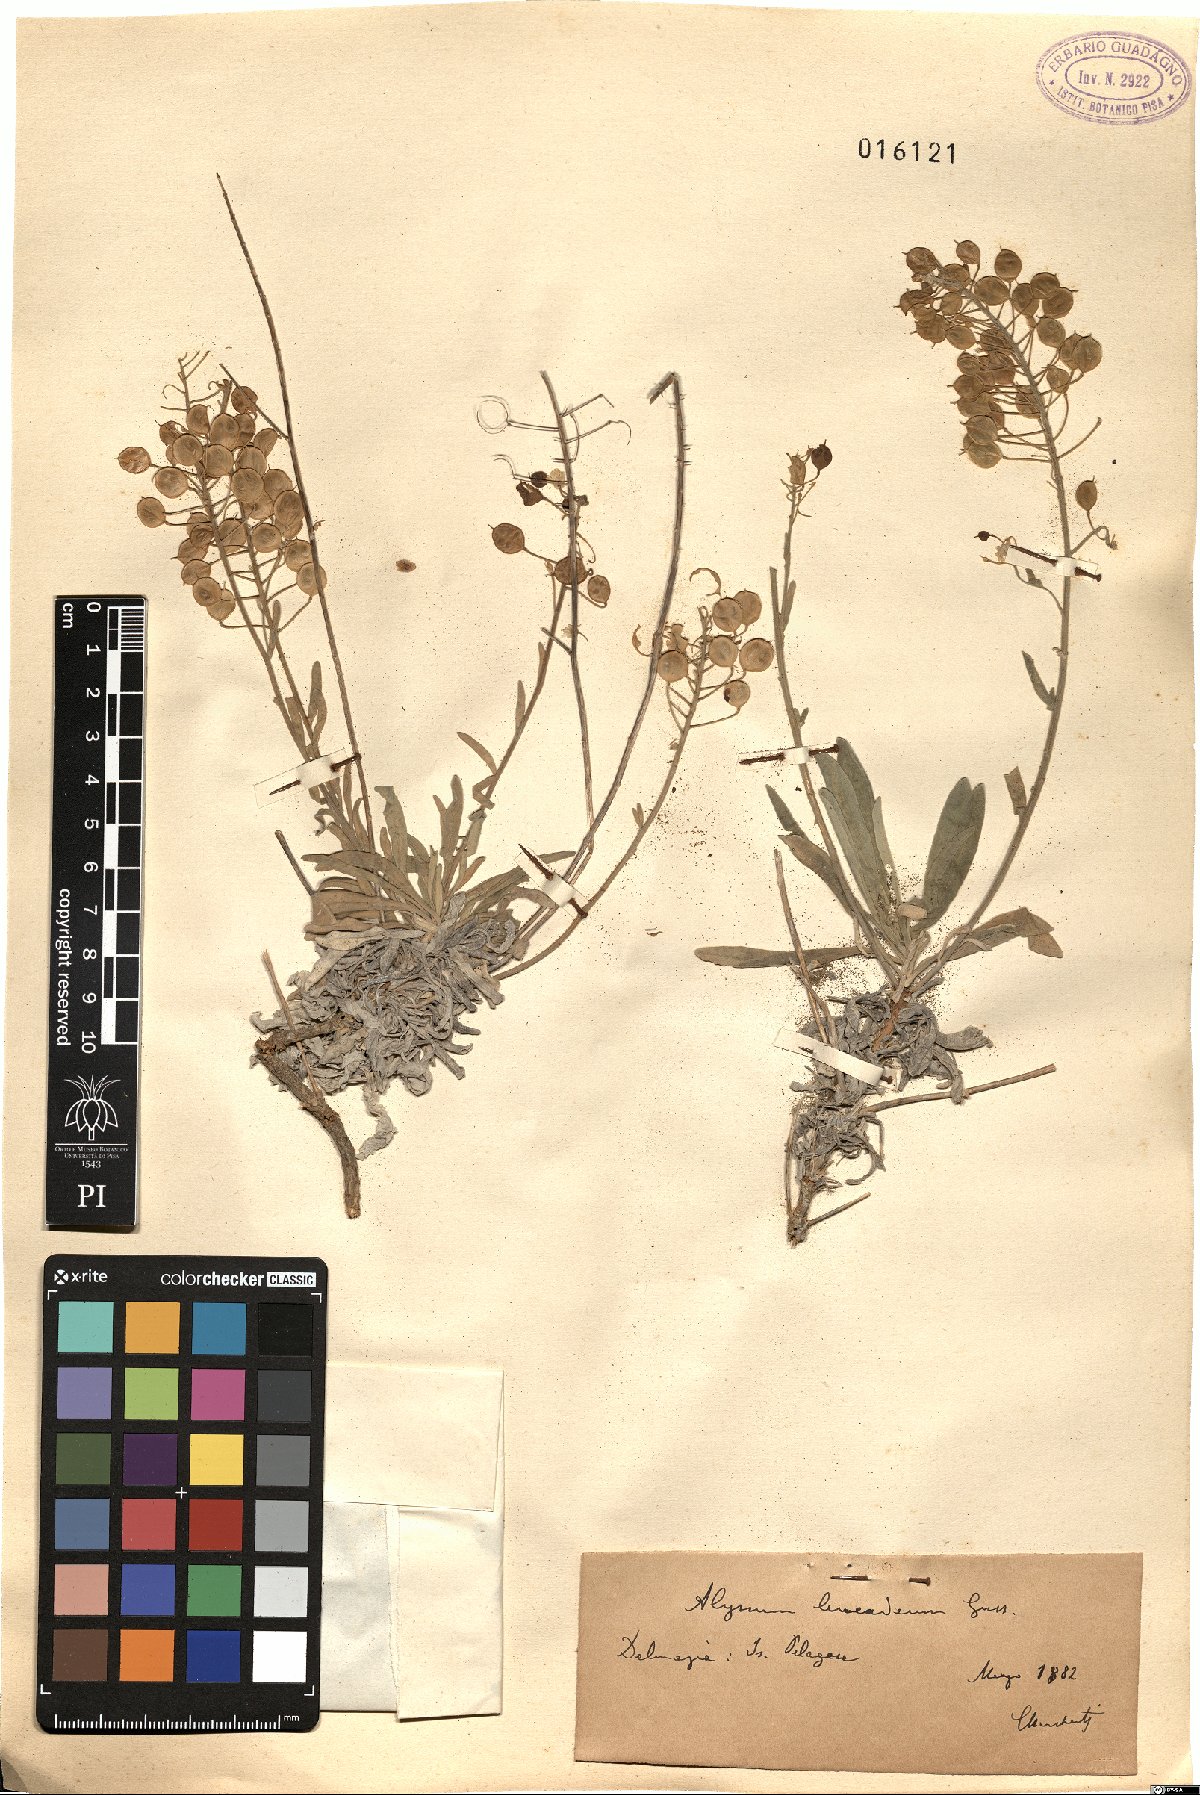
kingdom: Plantae
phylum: Tracheophyta
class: Magnoliopsida
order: Brassicales
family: Brassicaceae
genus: Aurinia
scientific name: Aurinia leucadea
